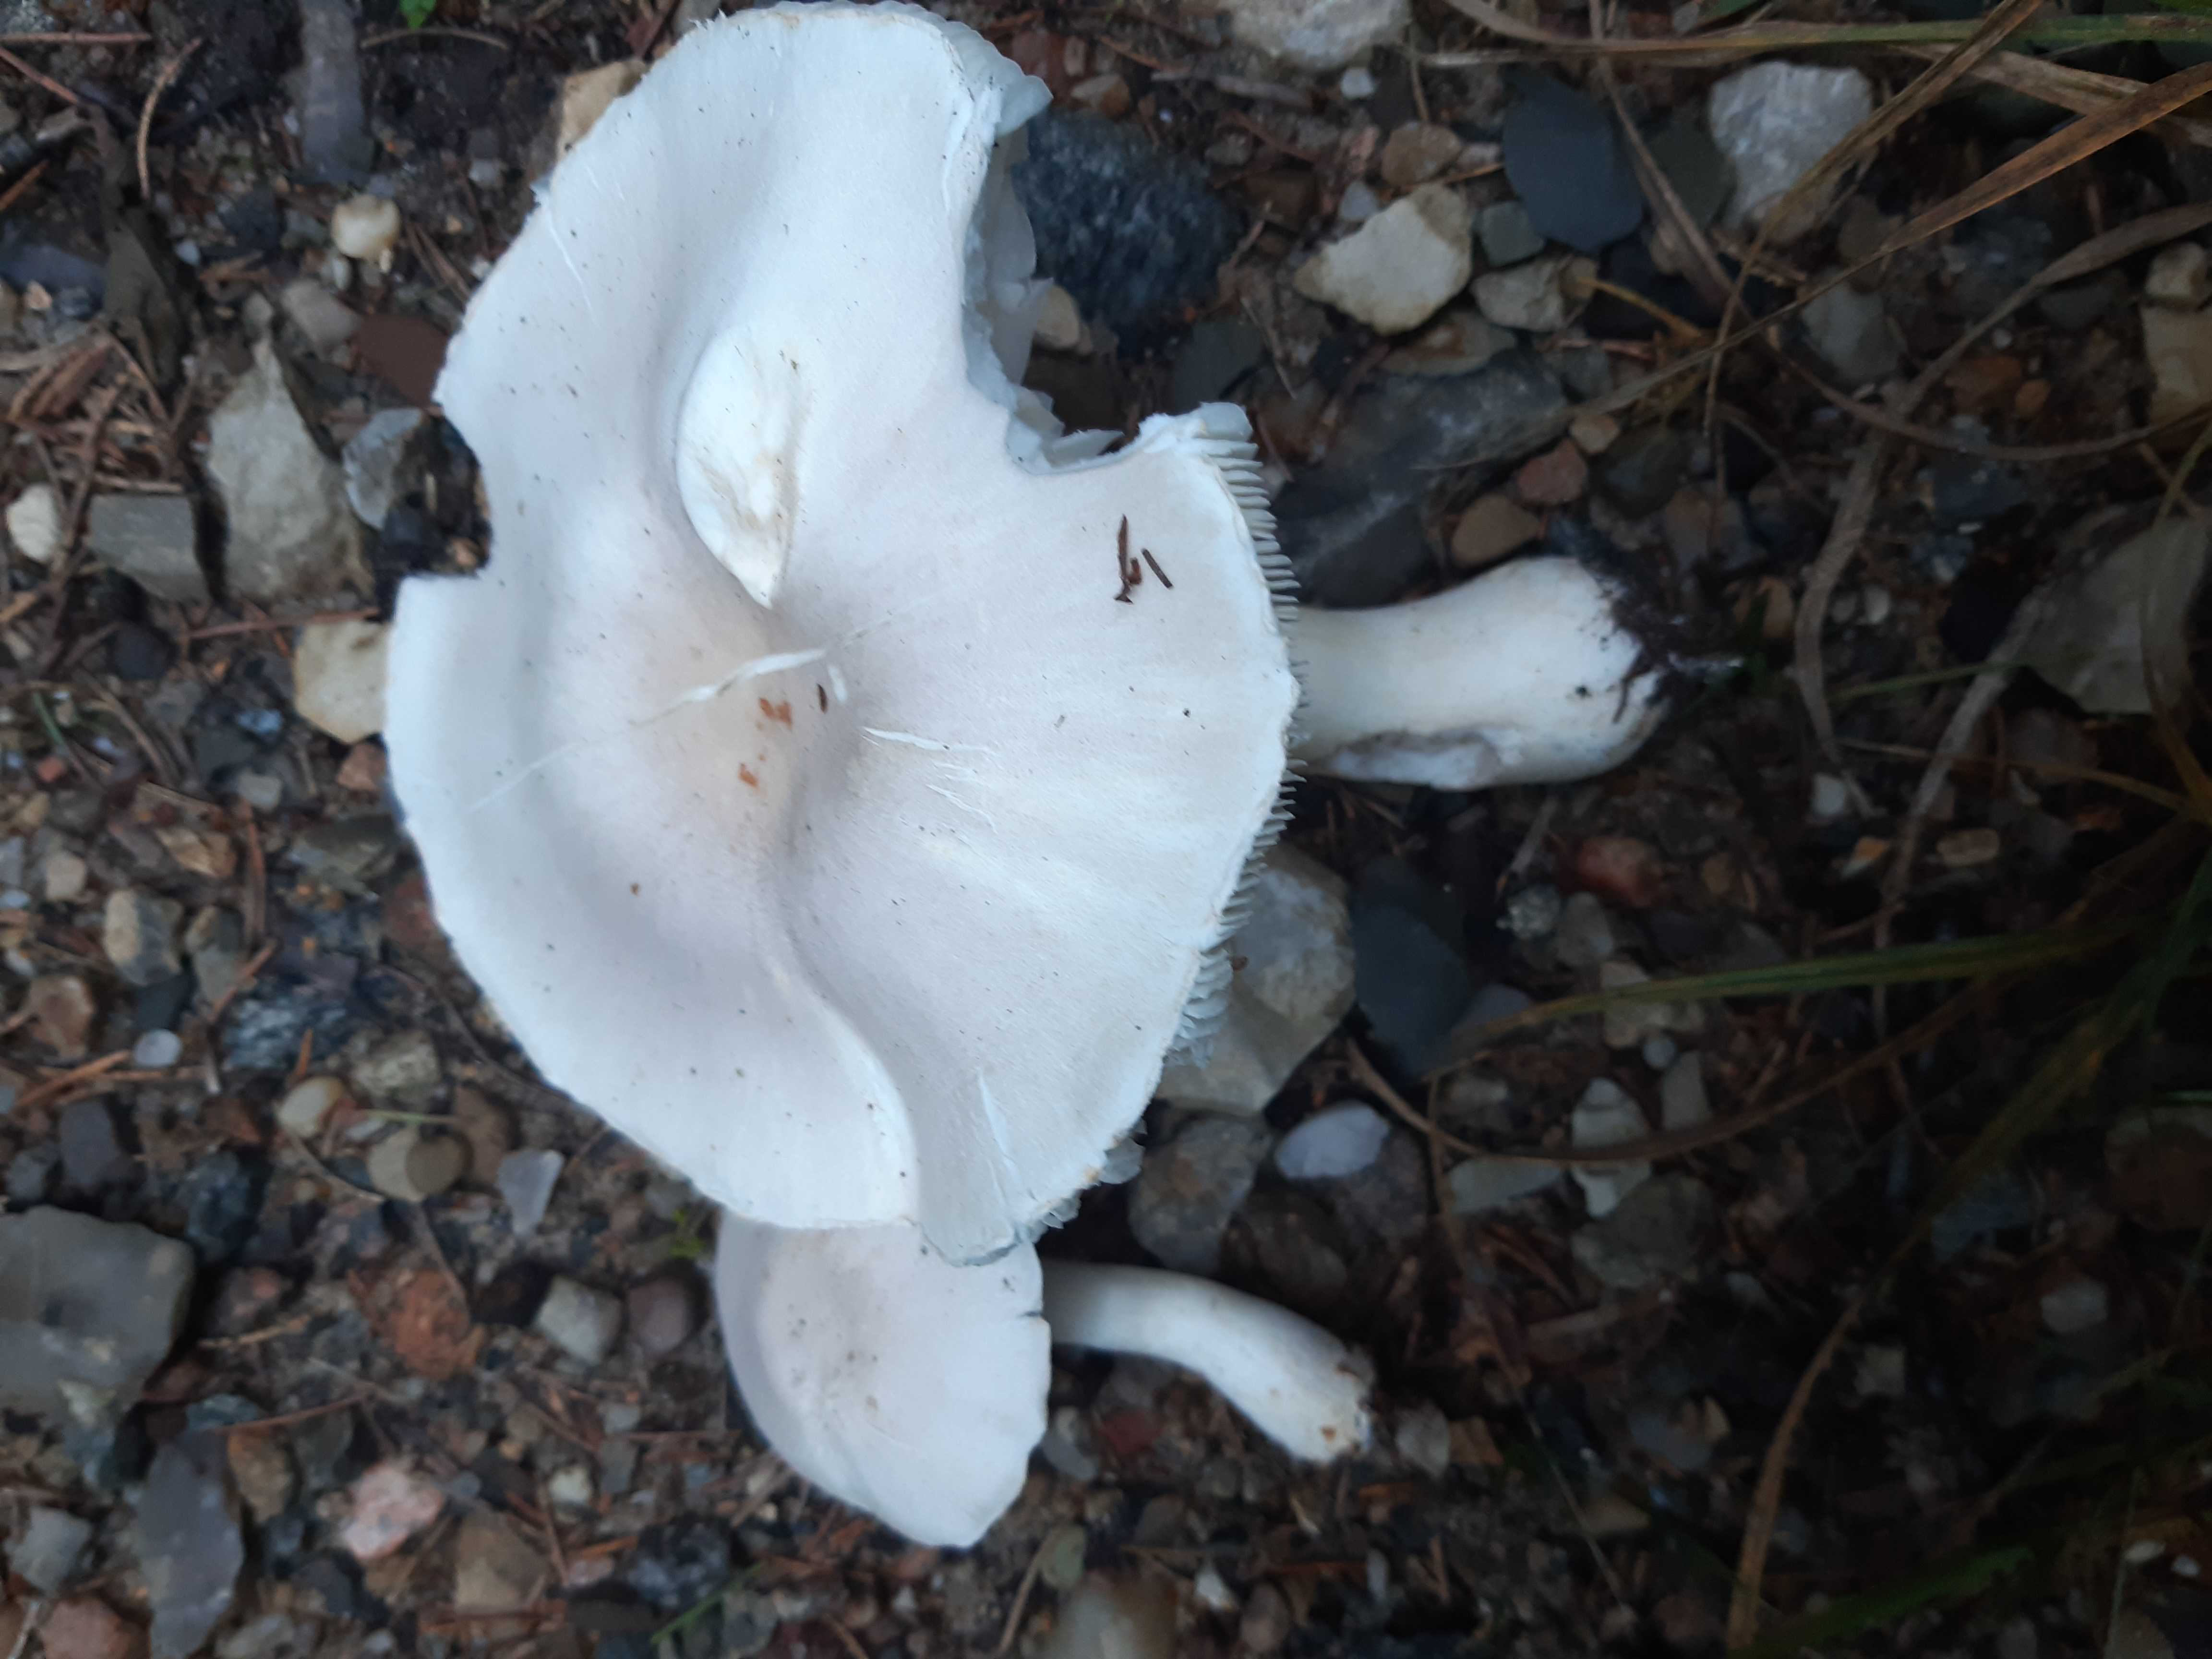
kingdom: Fungi
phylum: Basidiomycota
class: Agaricomycetes
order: Agaricales
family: Agaricaceae
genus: Leucoagaricus
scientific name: Leucoagaricus leucothites
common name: rosabladet silkehat
